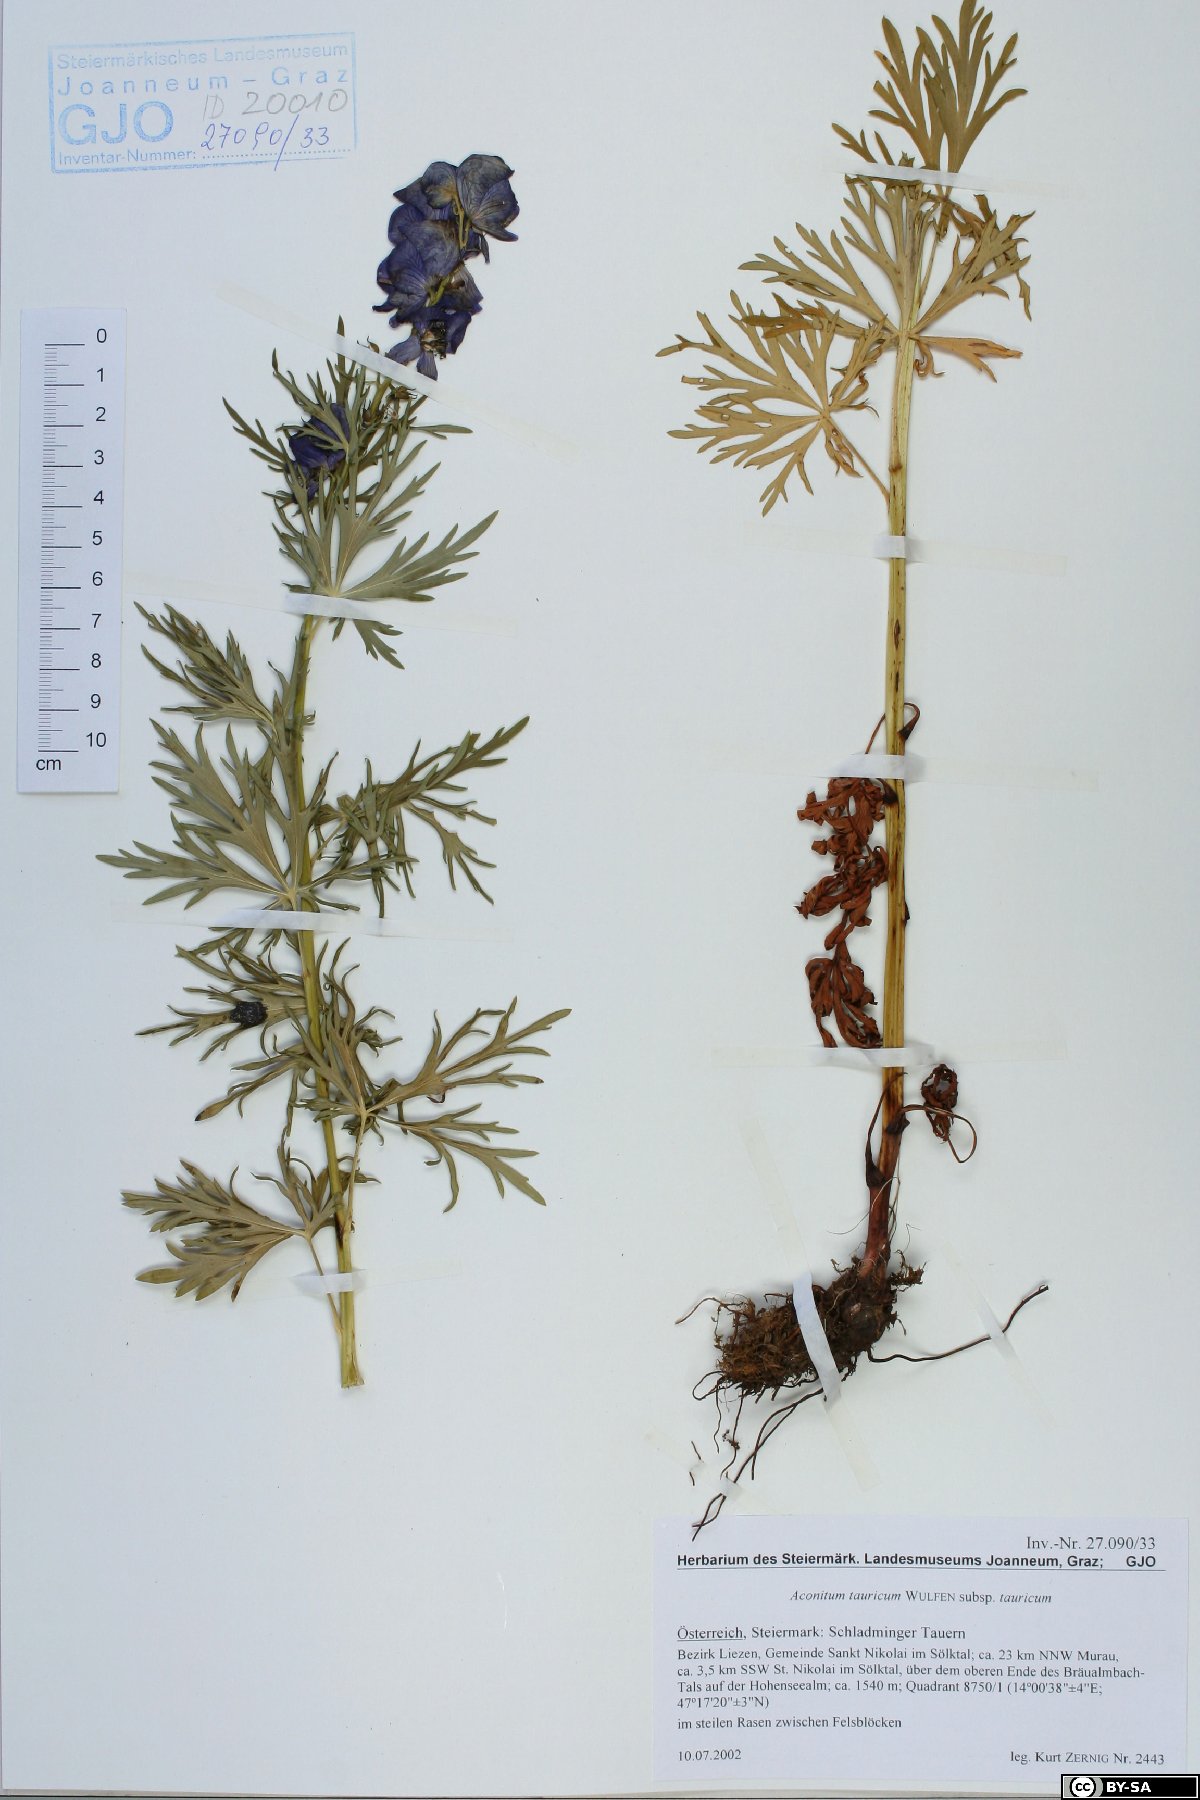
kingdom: Plantae
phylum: Tracheophyta
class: Magnoliopsida
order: Ranunculales
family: Ranunculaceae
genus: Aconitum
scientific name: Aconitum tauricum
